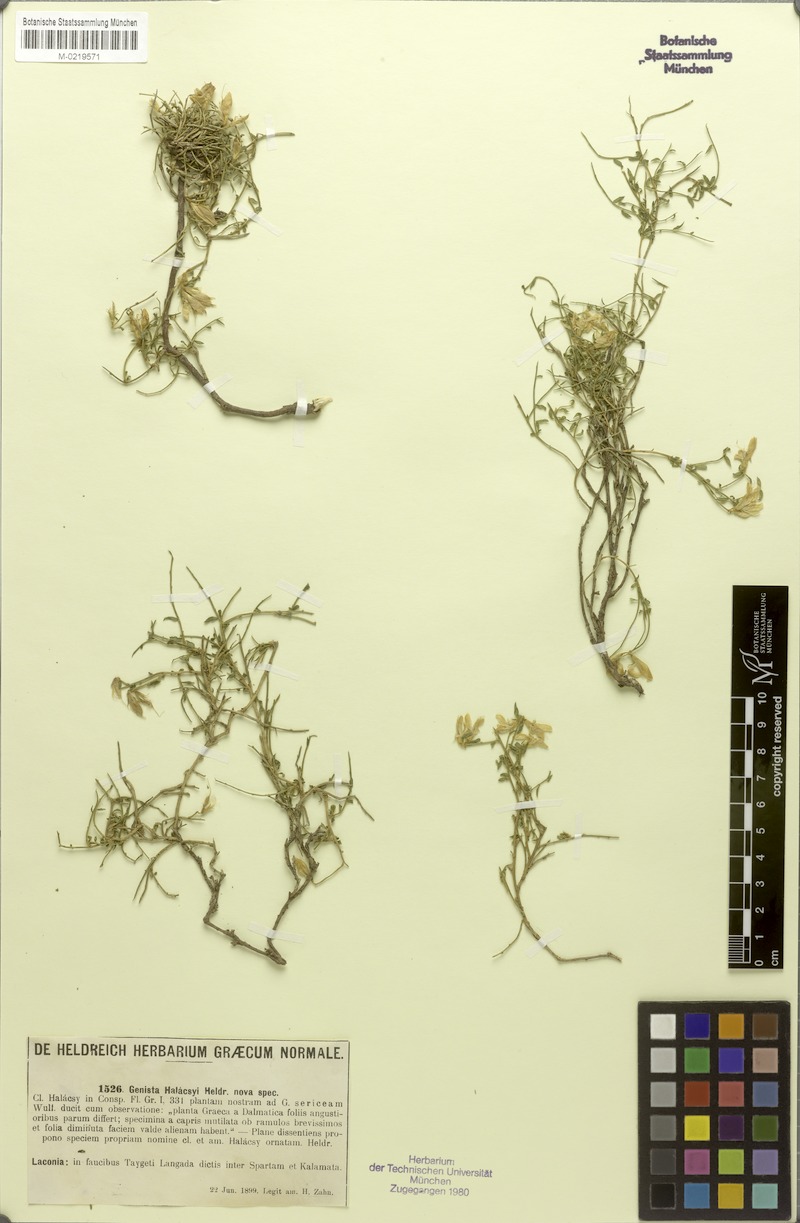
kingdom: Plantae
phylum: Tracheophyta
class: Magnoliopsida
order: Fabales
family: Fabaceae
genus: Genista
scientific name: Genista halacsyi
